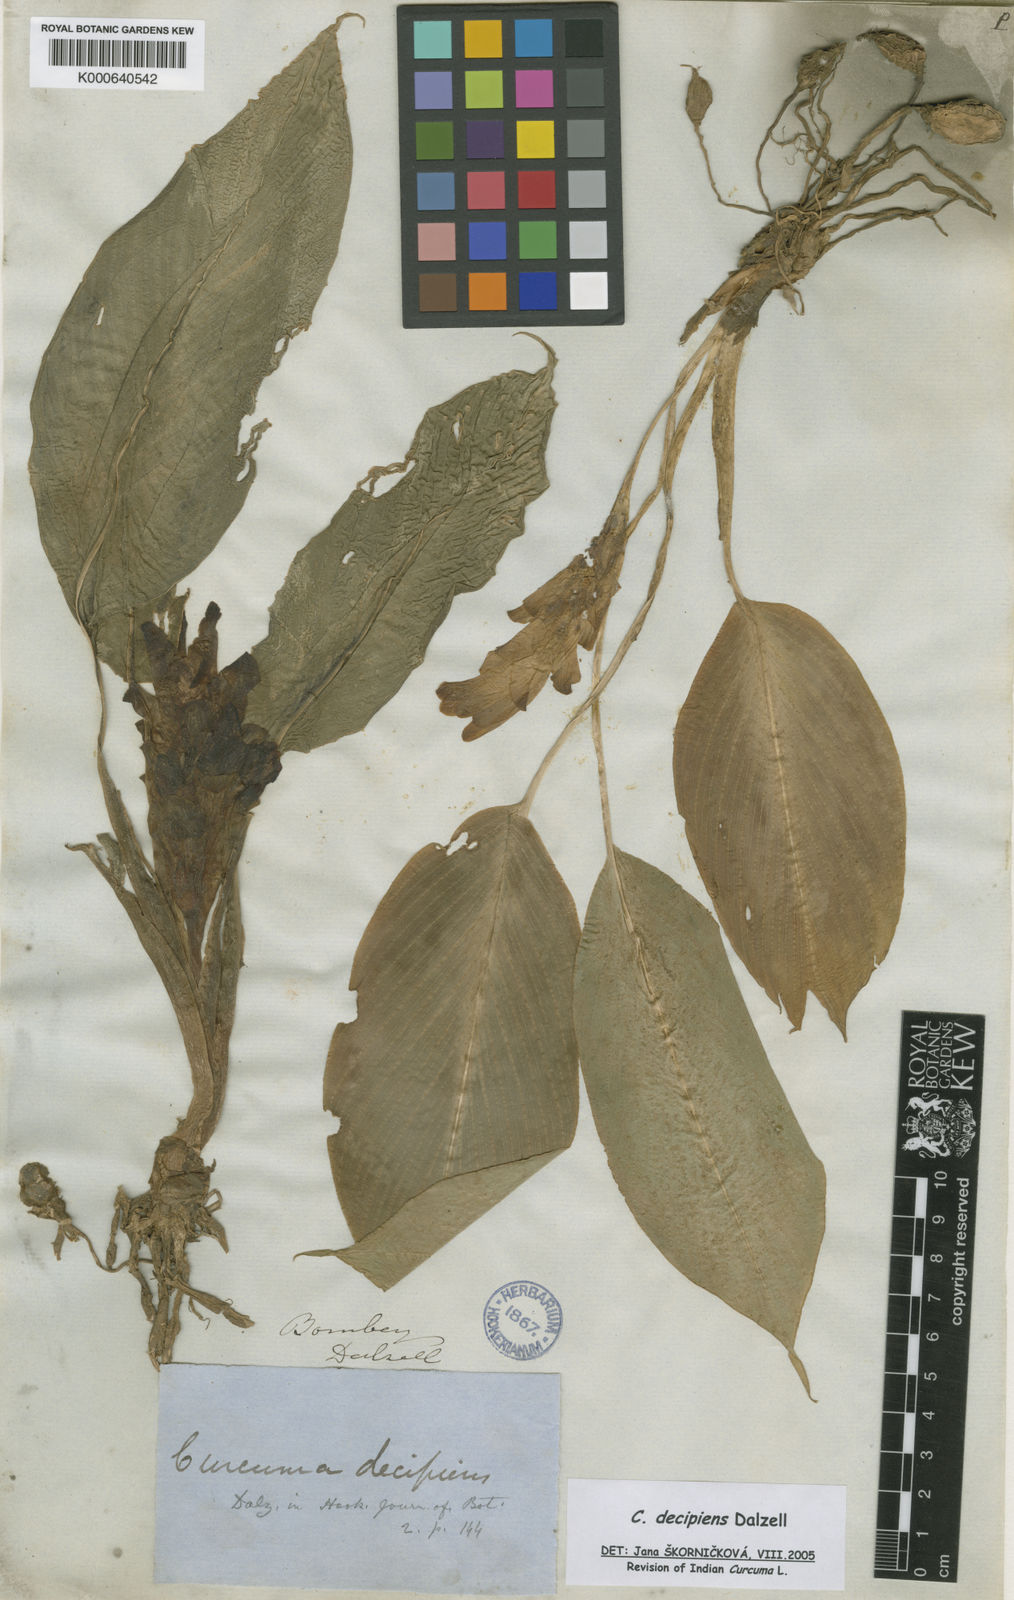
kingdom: Plantae
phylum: Tracheophyta
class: Liliopsida
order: Zingiberales
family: Zingiberaceae
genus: Curcuma
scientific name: Curcuma decipiens
